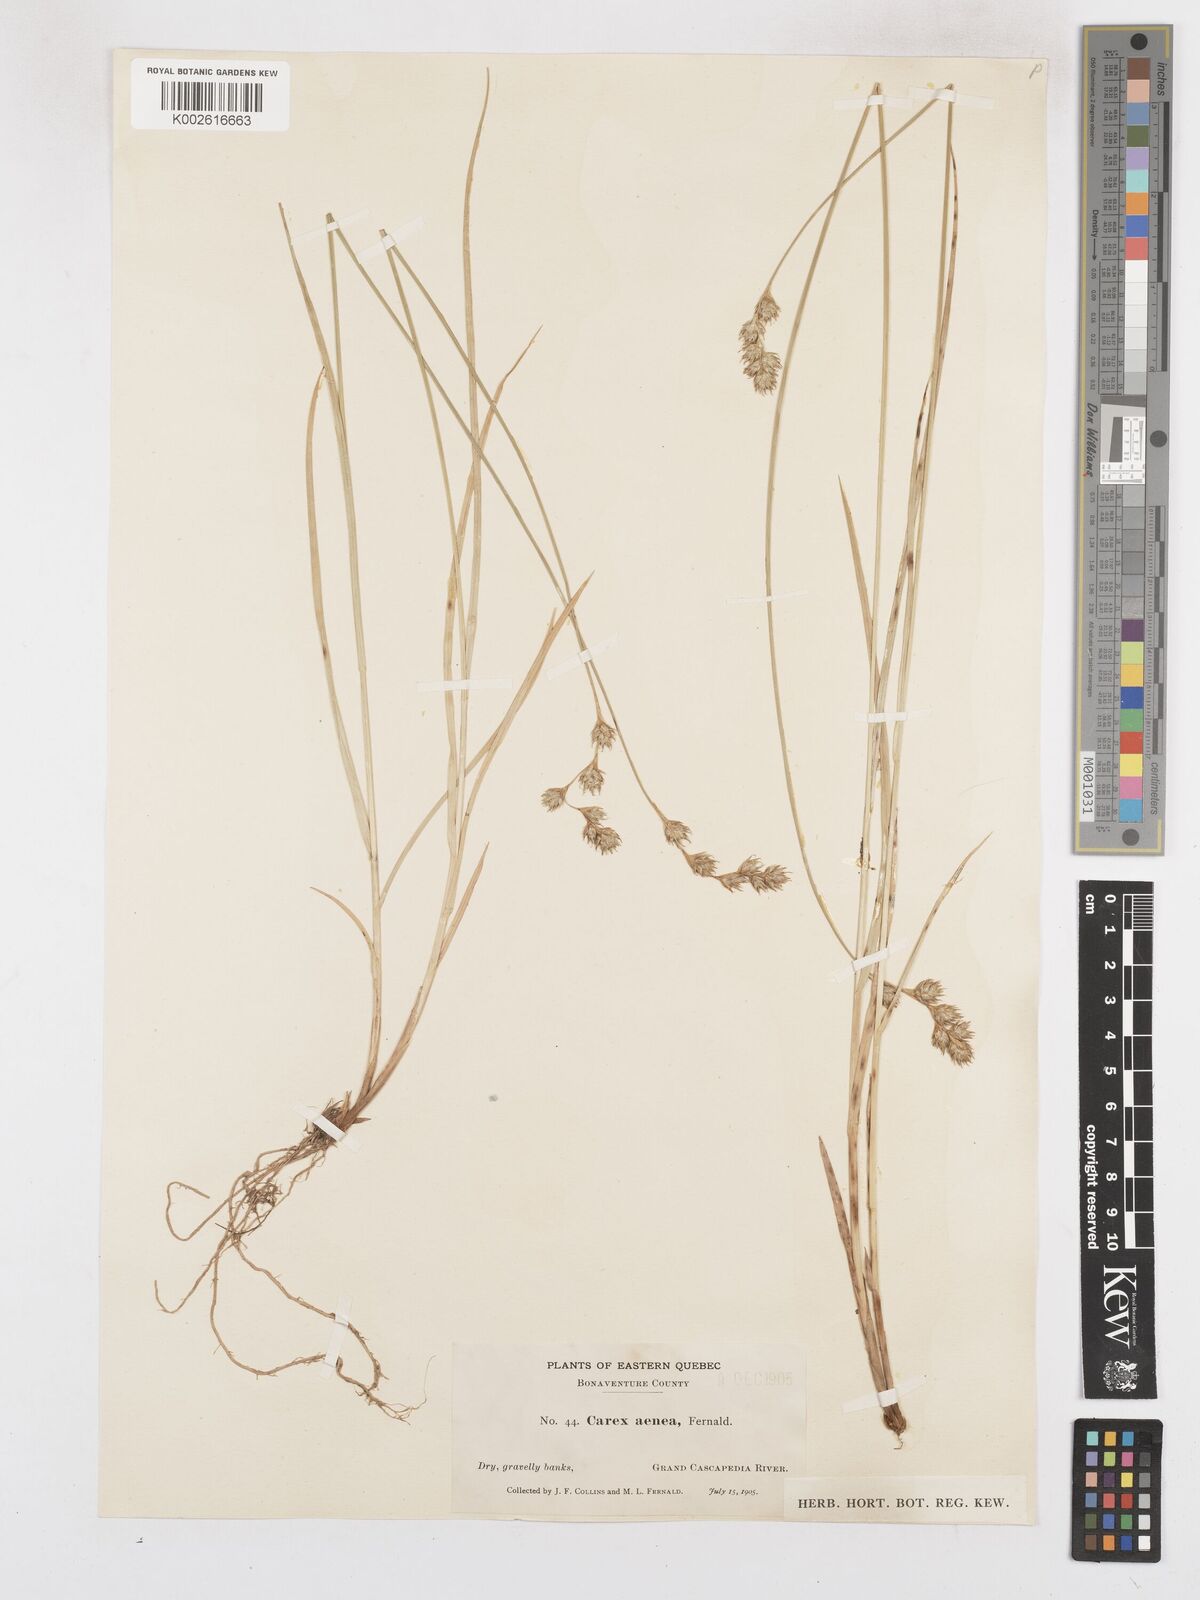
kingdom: Plantae
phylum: Tracheophyta
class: Liliopsida
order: Poales
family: Cyperaceae
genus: Carex
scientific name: Carex foenea
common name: Bronze sedge
